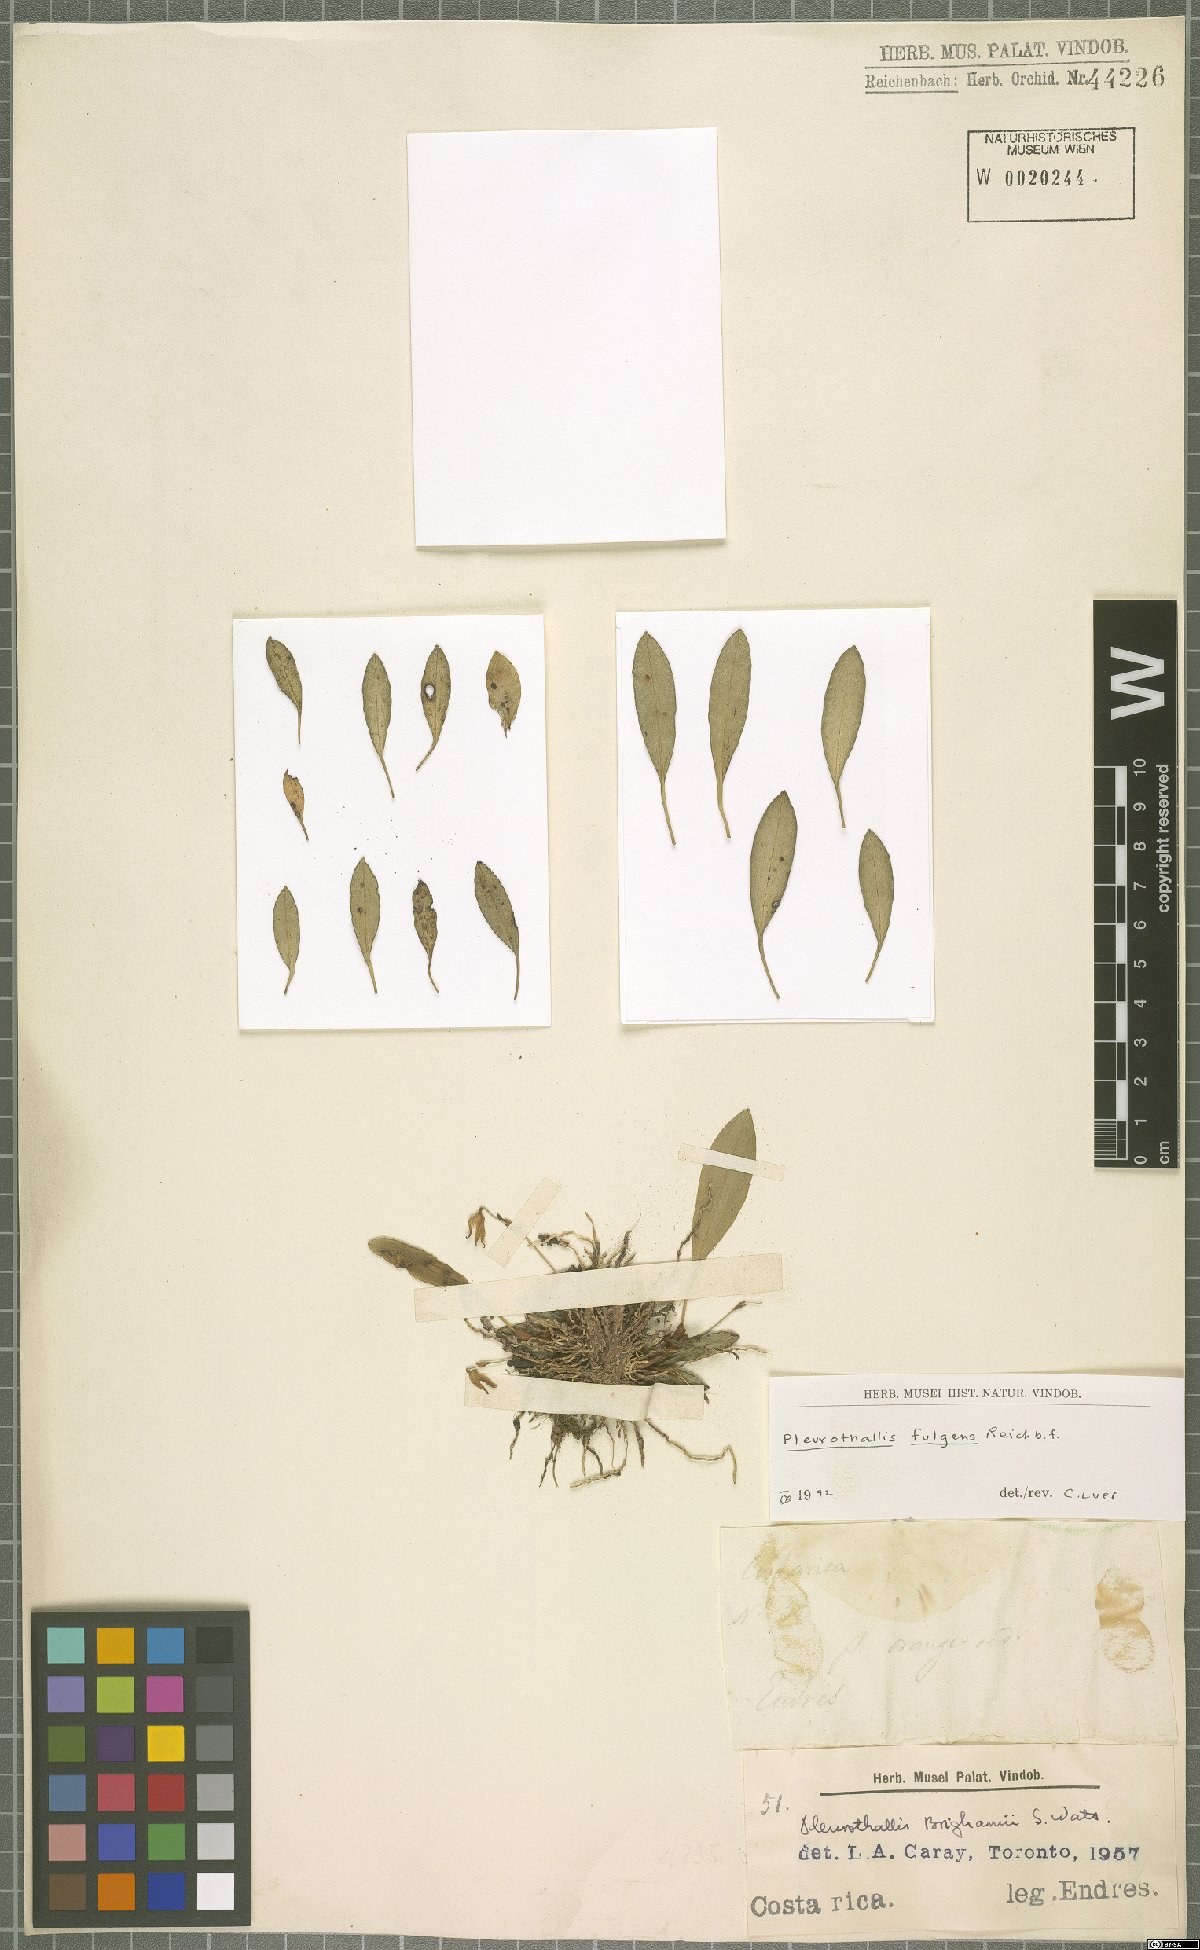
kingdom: Plantae
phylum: Tracheophyta
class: Liliopsida
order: Asparagales
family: Orchidaceae
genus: Specklinia
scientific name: Specklinia fulgens
